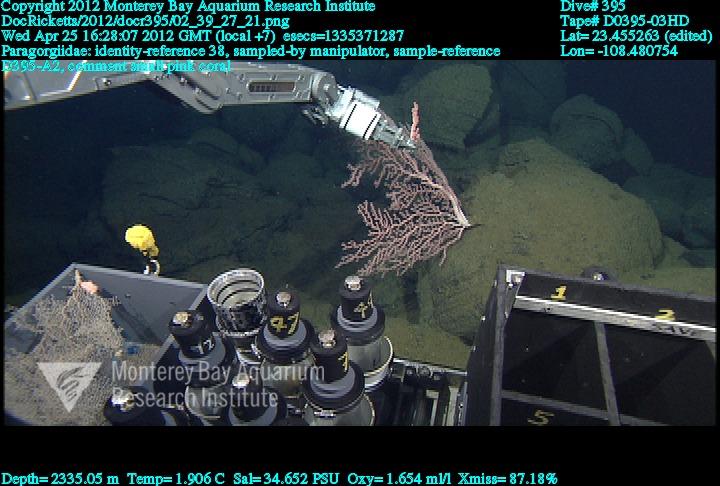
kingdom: Animalia
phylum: Cnidaria
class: Anthozoa
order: Scleralcyonacea
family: Coralliidae
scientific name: Coralliidae
